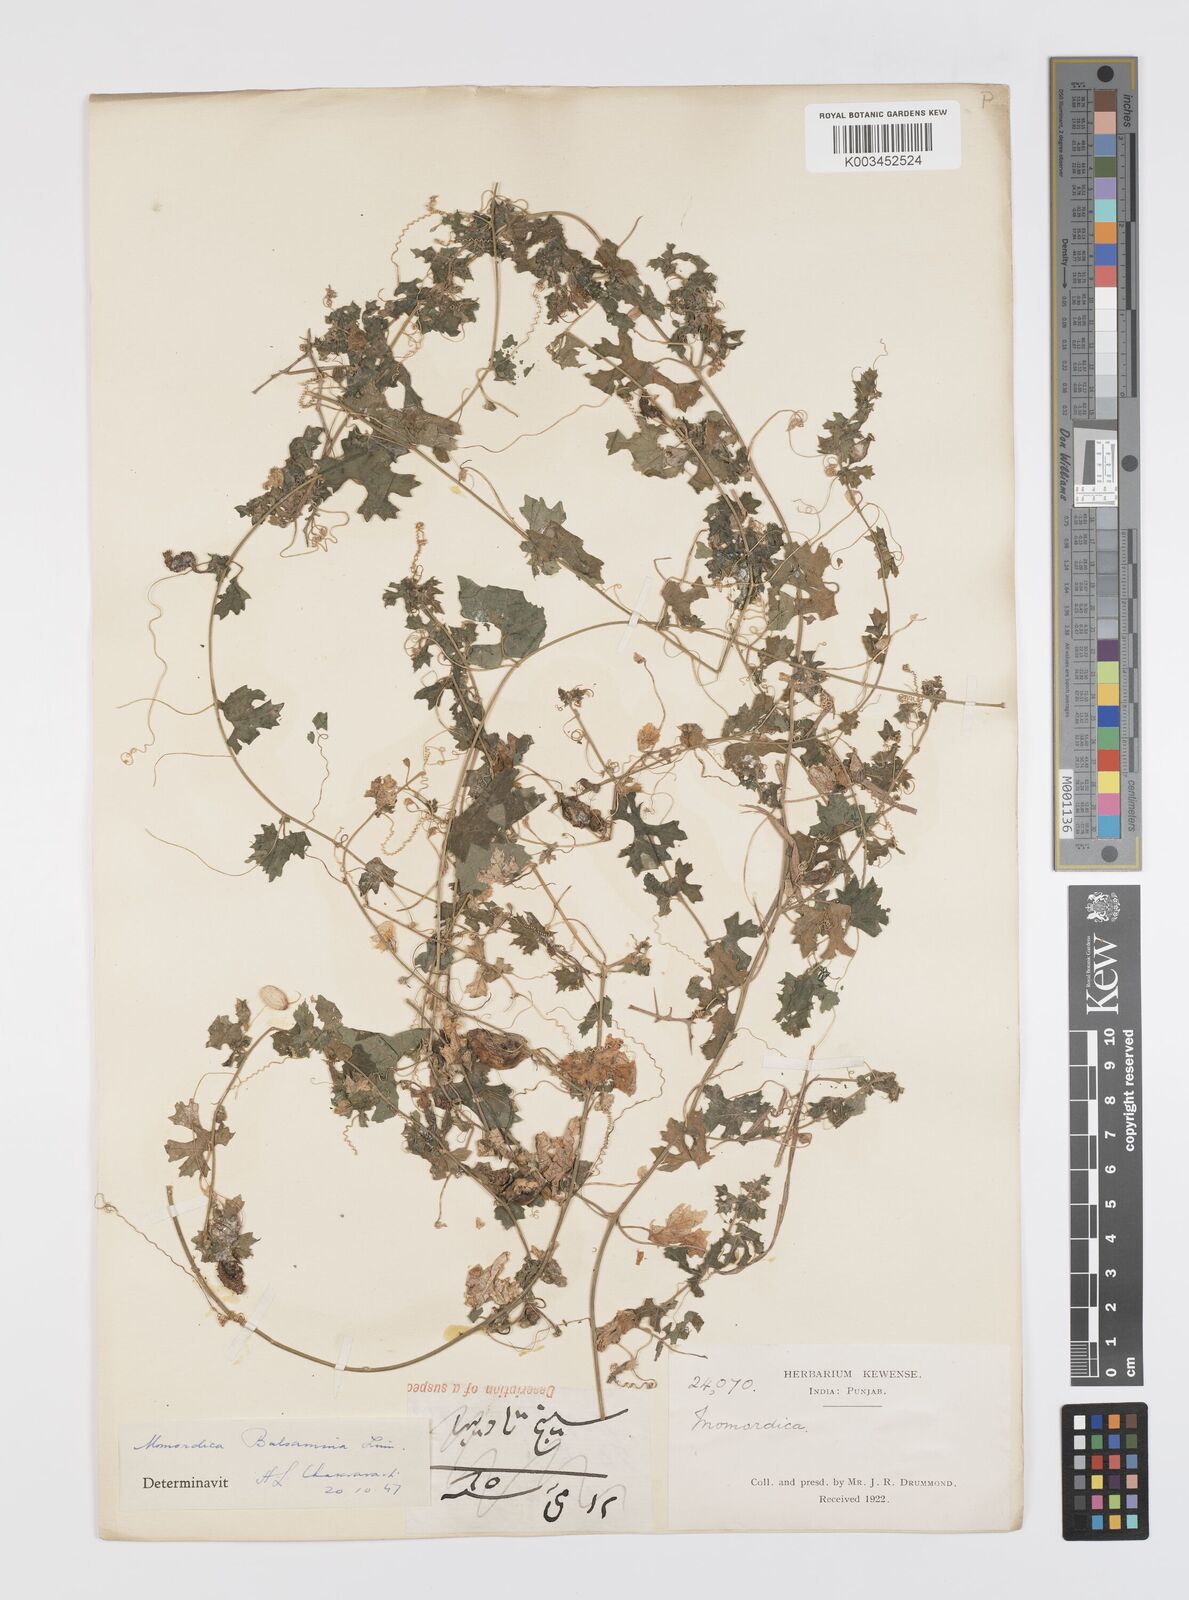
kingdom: Plantae
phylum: Tracheophyta
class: Magnoliopsida
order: Cucurbitales
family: Cucurbitaceae
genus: Momordica
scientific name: Momordica balsamina
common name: Southern balsampear
